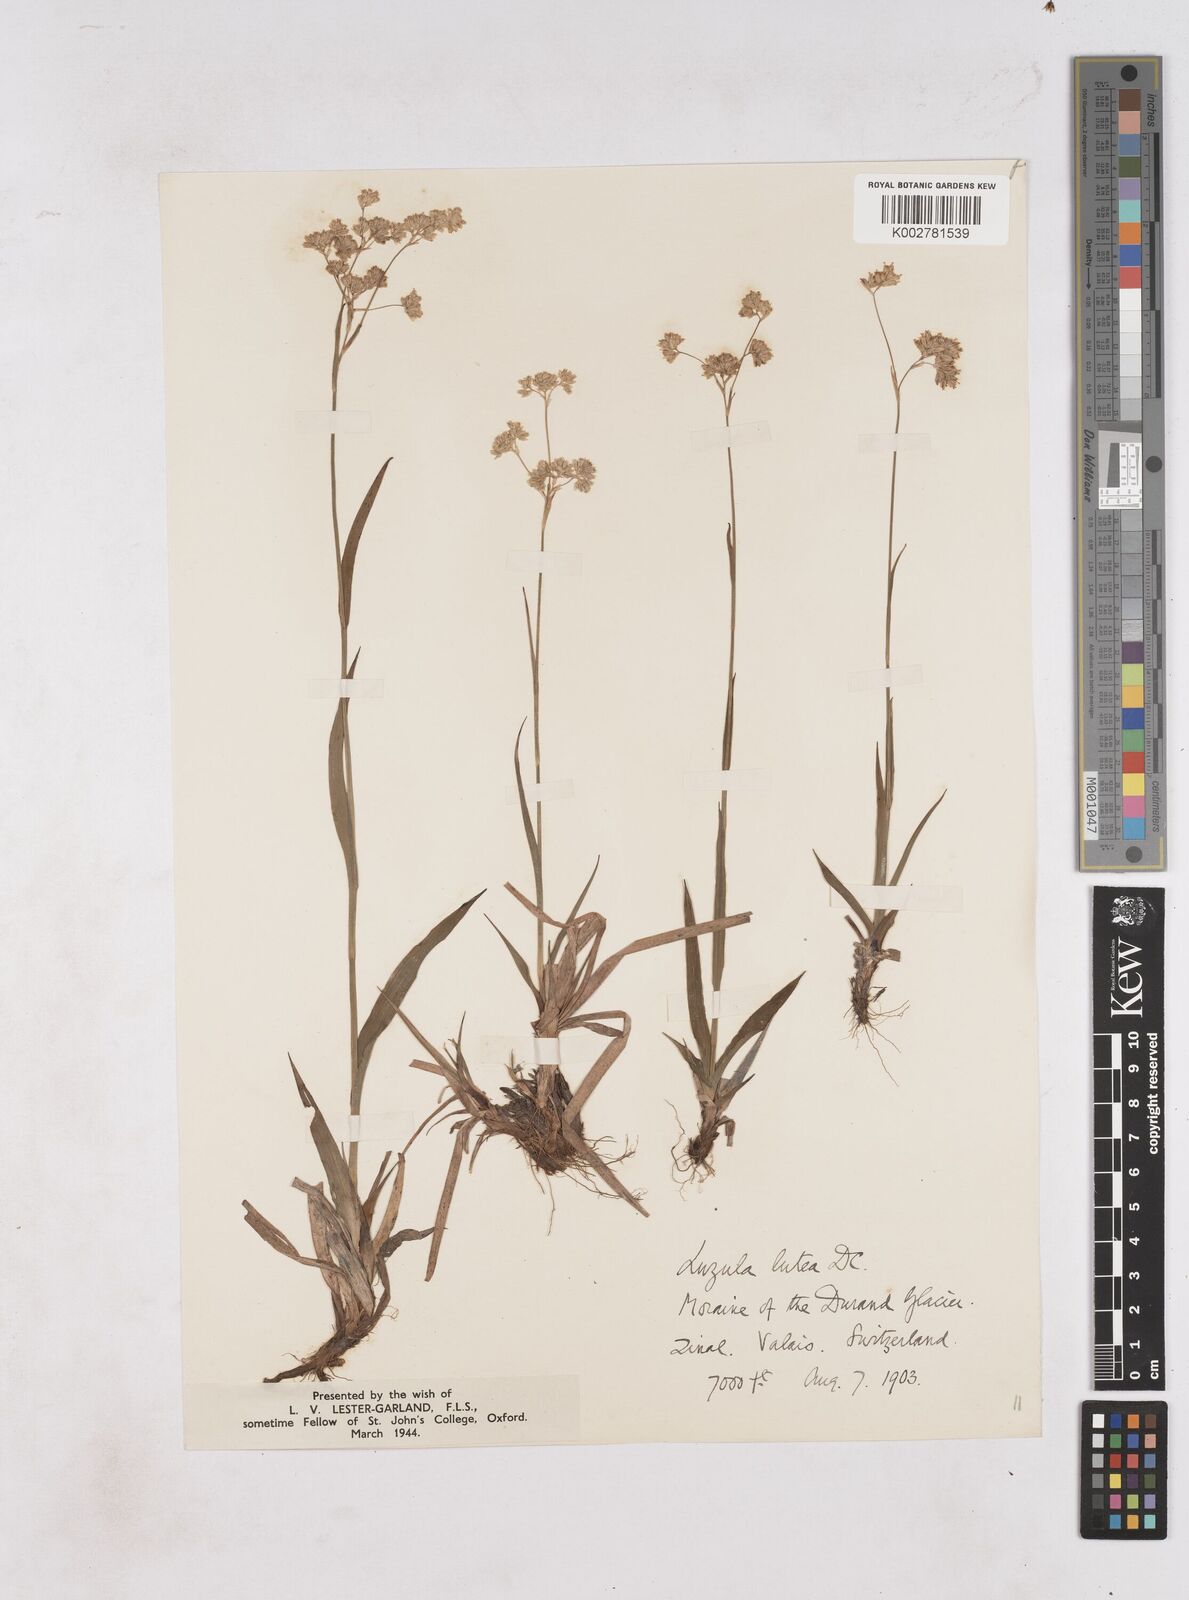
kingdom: Plantae
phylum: Tracheophyta
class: Liliopsida
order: Poales
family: Juncaceae
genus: Luzula
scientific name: Luzula lutea
